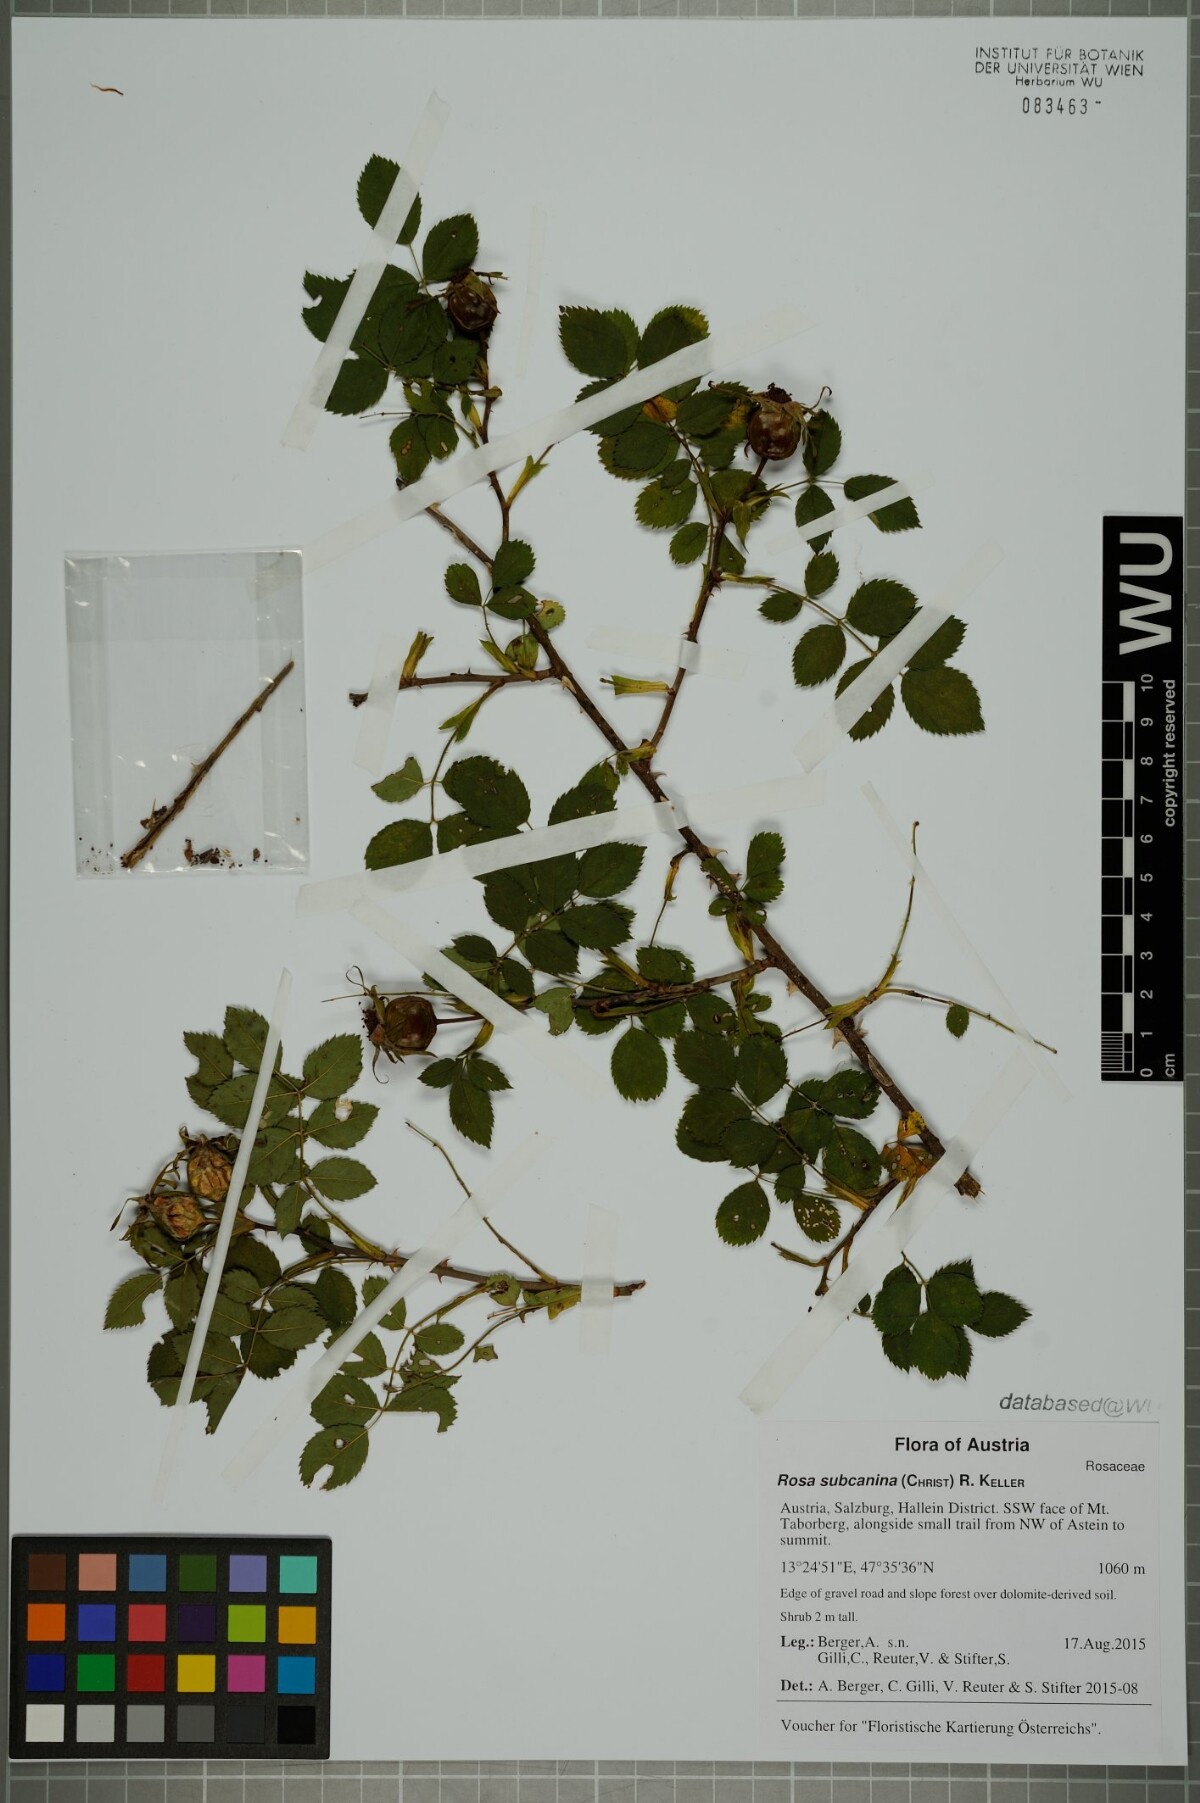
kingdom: Plantae
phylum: Tracheophyta
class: Magnoliopsida
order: Rosales
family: Rosaceae
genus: Rosa
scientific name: Rosa subcanina
